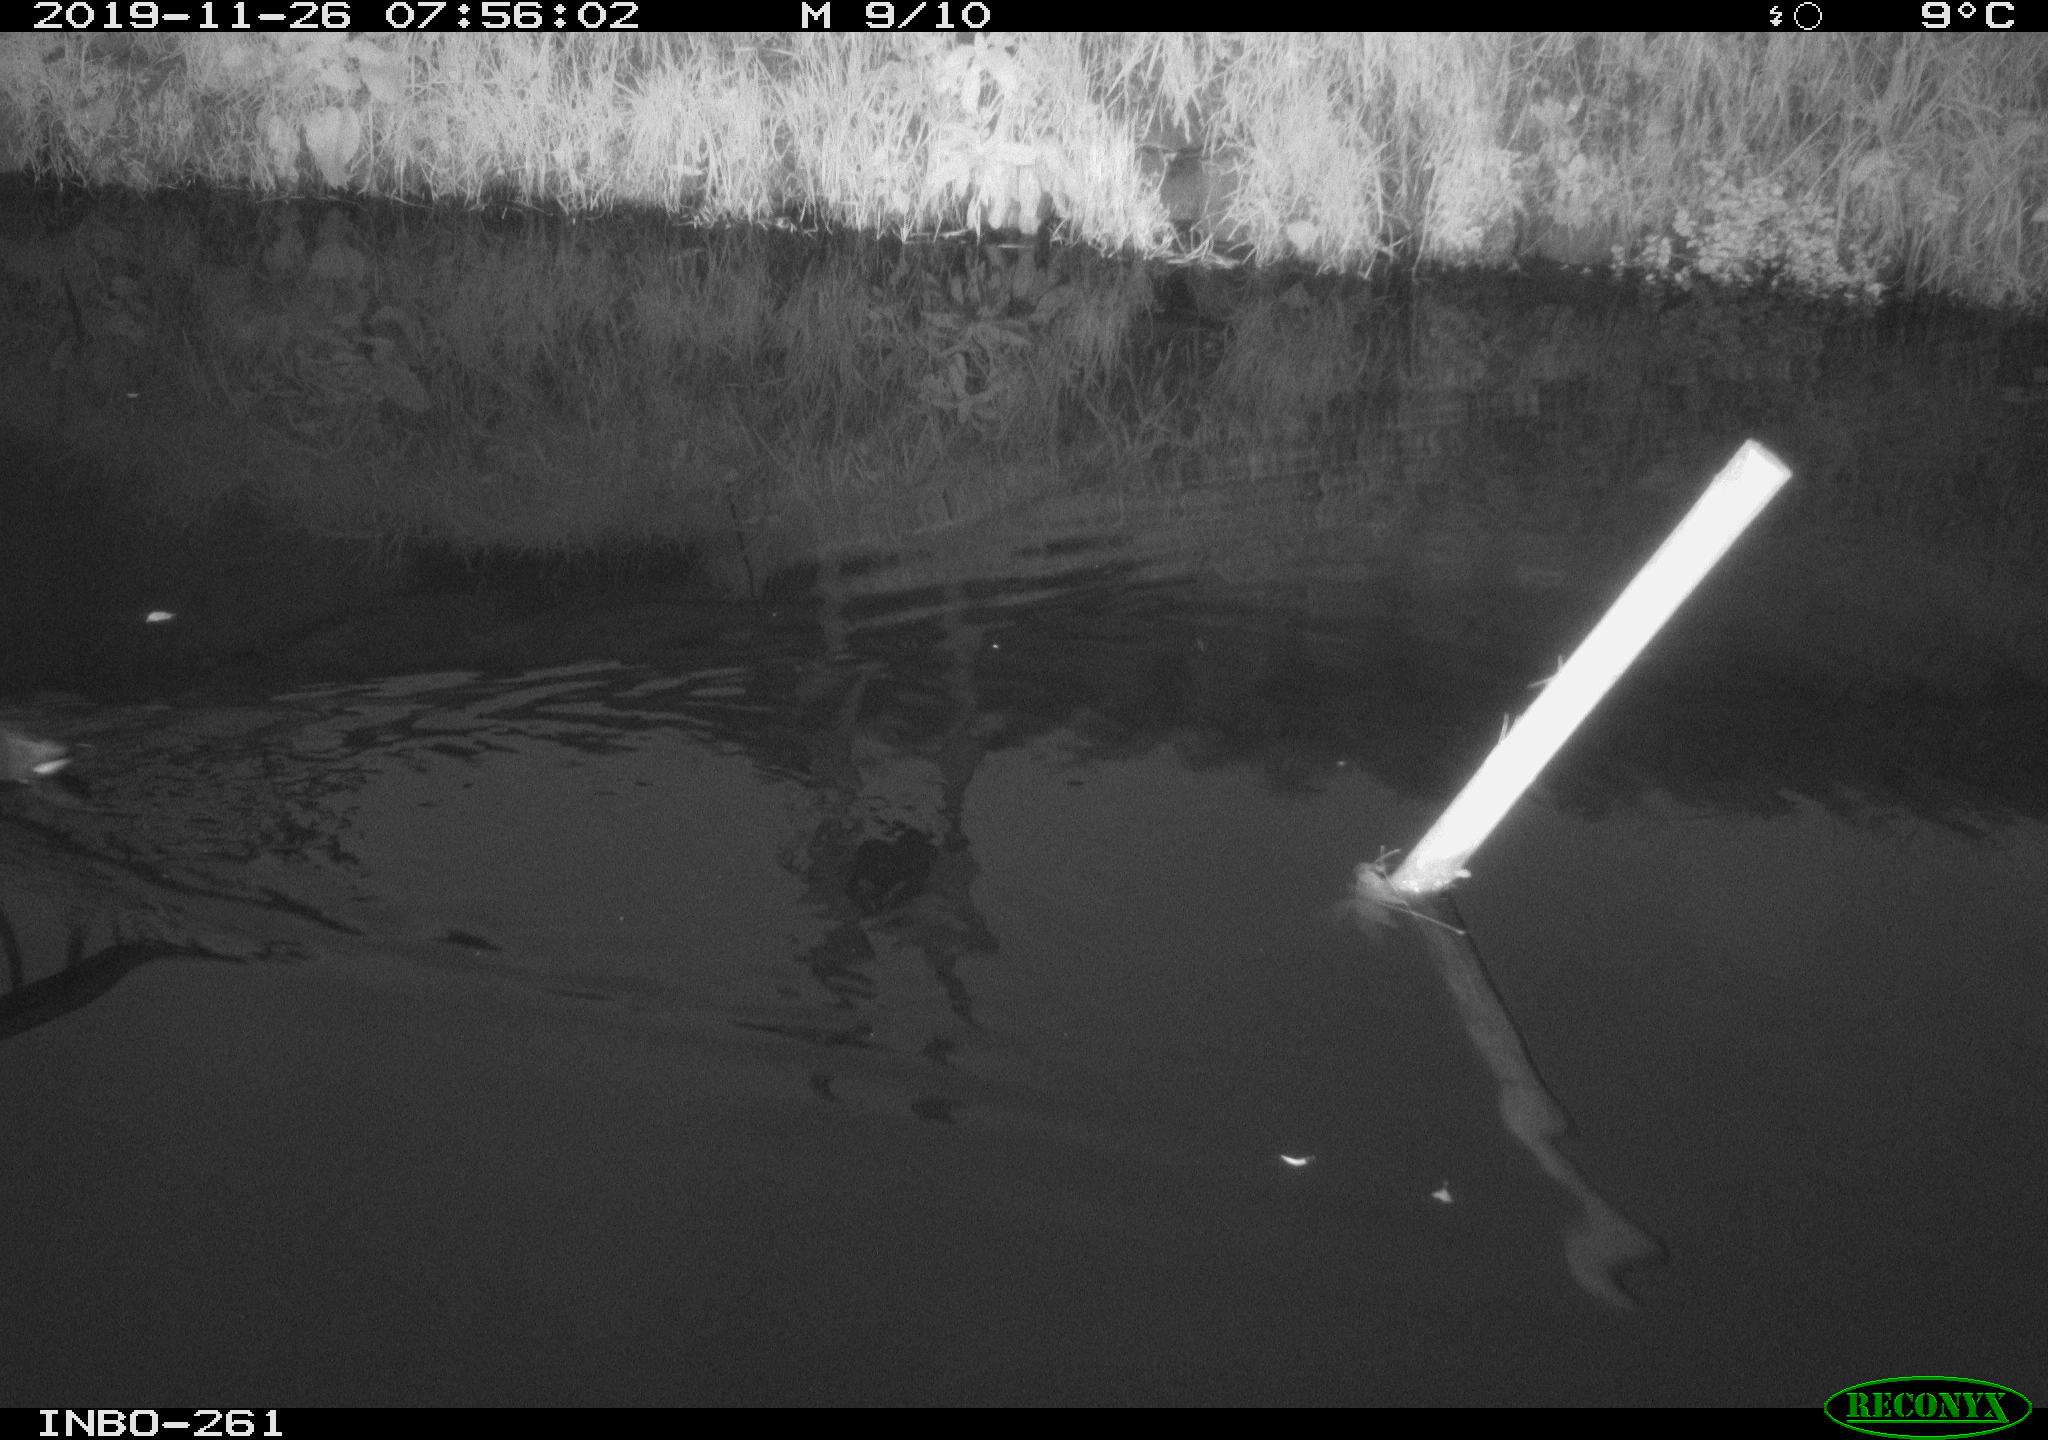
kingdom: Animalia
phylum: Chordata
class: Aves
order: Gruiformes
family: Rallidae
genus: Gallinula
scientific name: Gallinula chloropus
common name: Common moorhen
